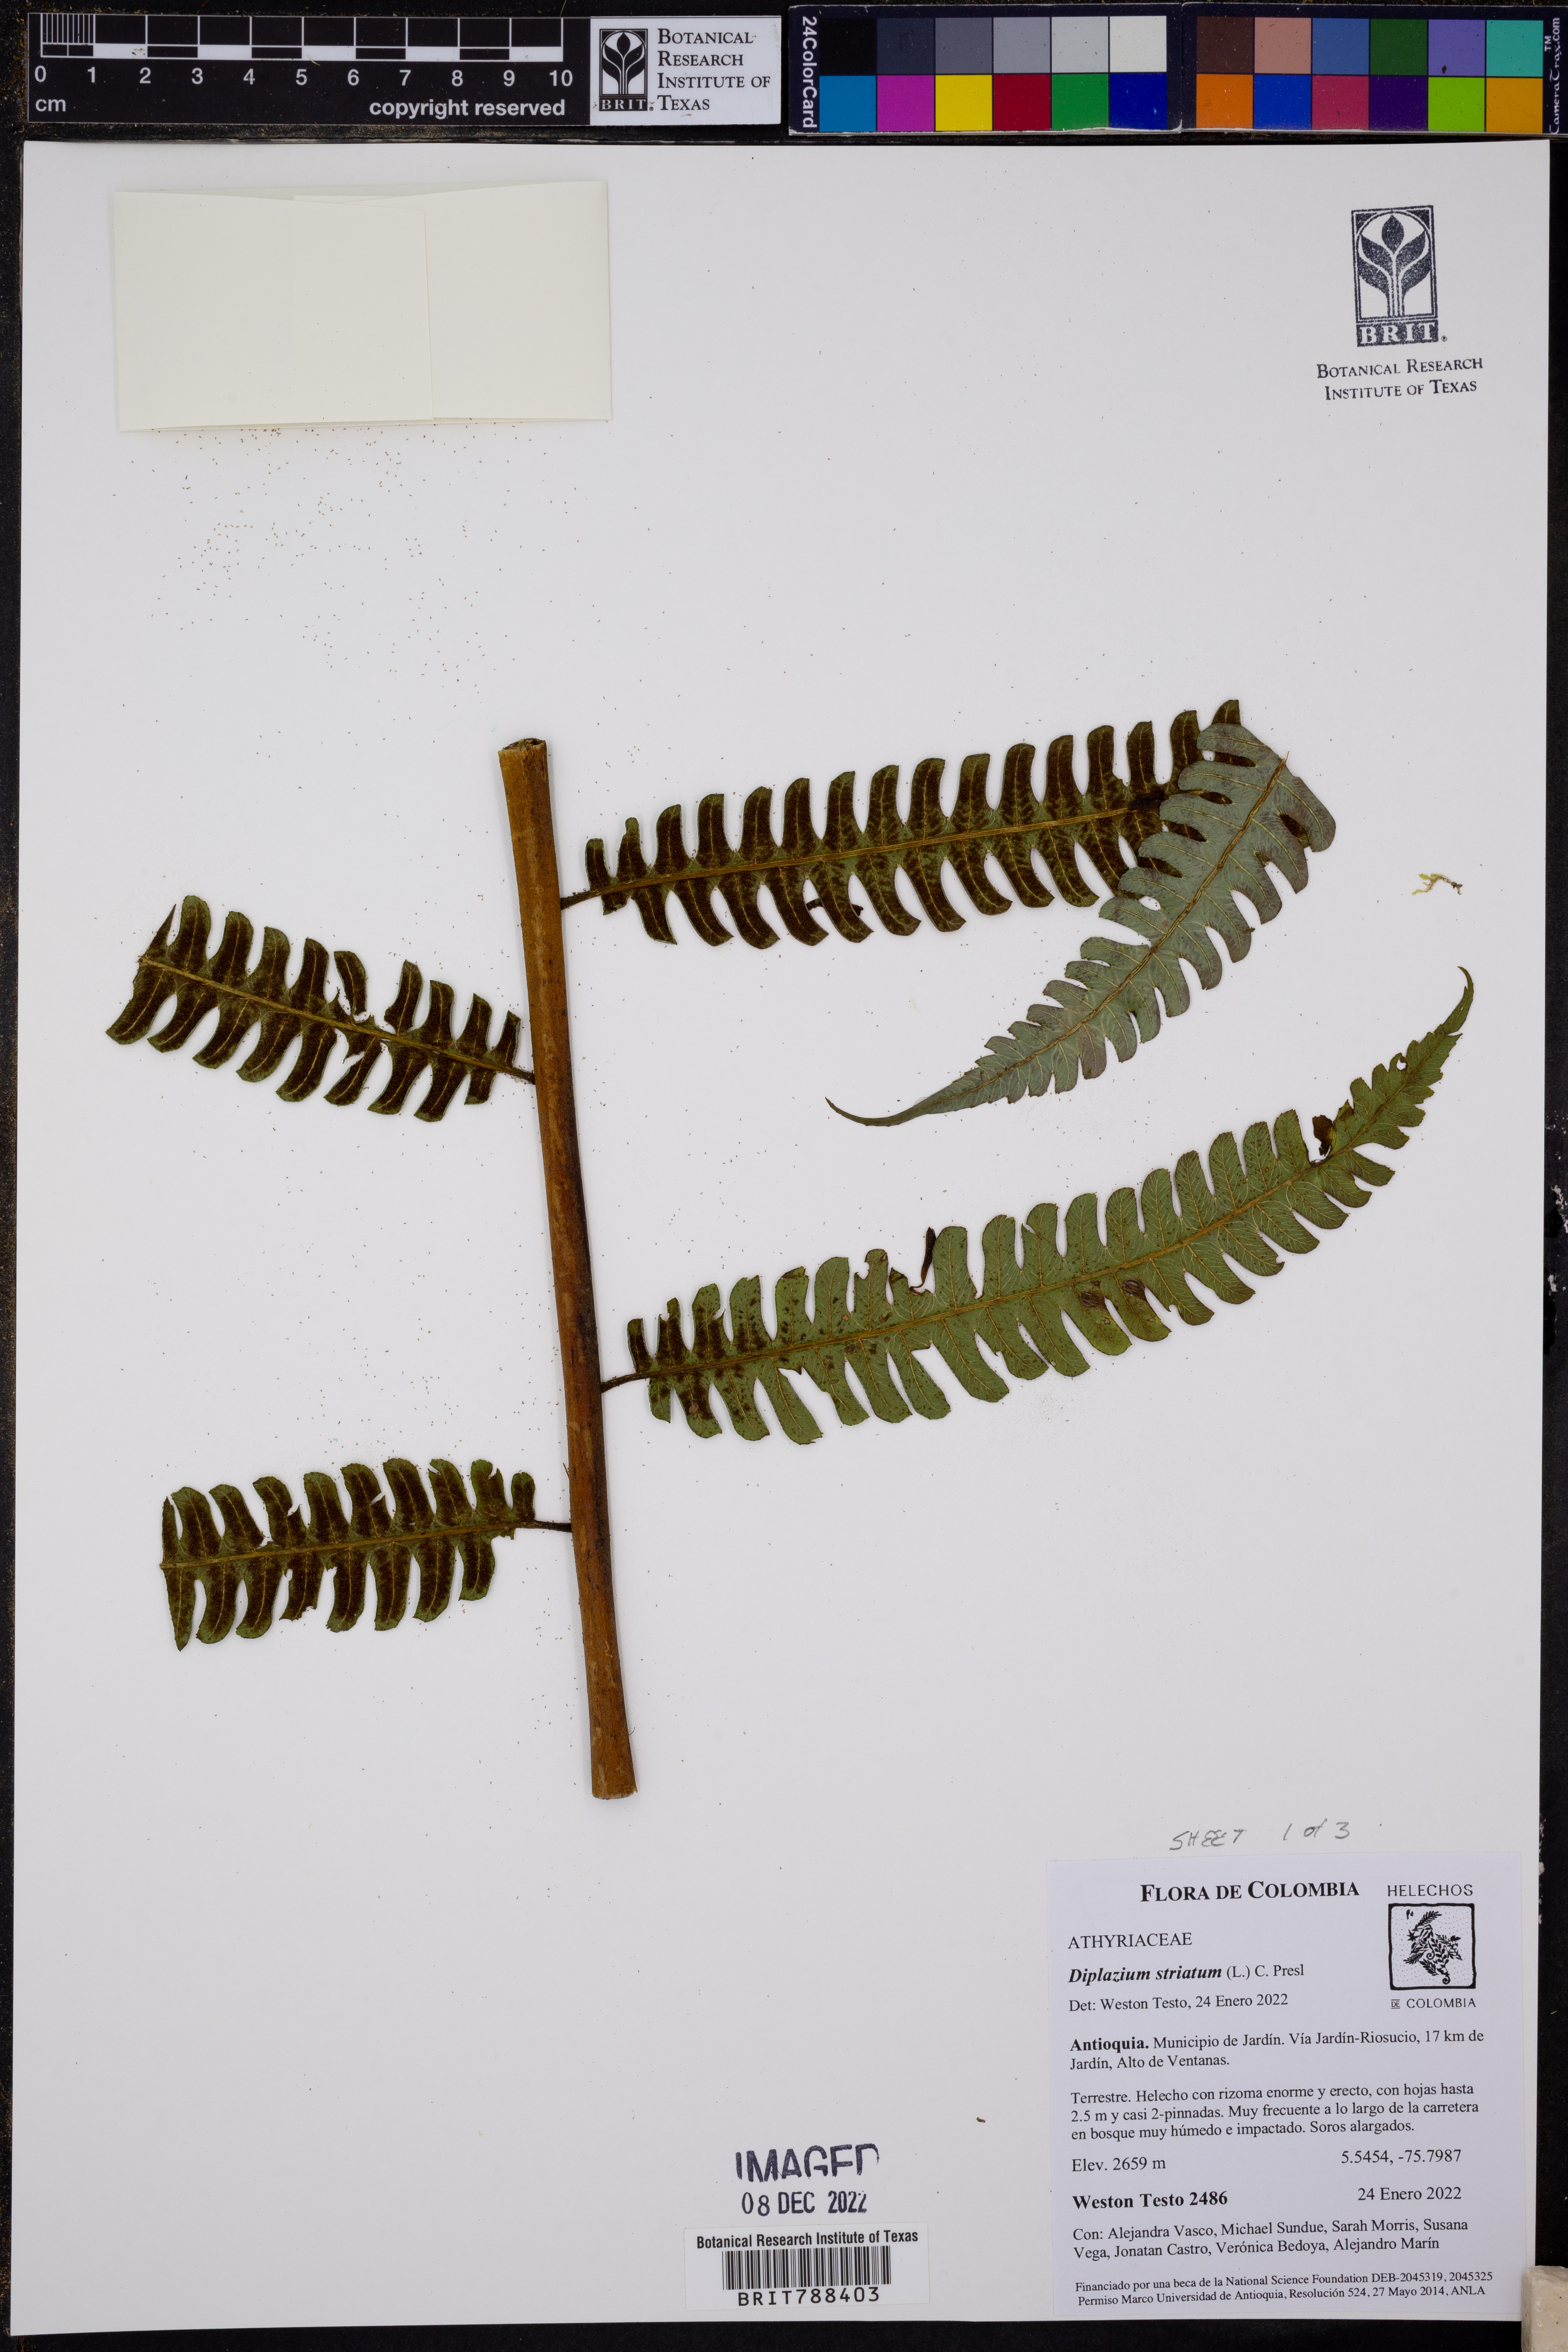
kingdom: Plantae
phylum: Tracheophyta
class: Polypodiopsida
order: Polypodiales
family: Athyriaceae
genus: Diplazium
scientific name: Diplazium
